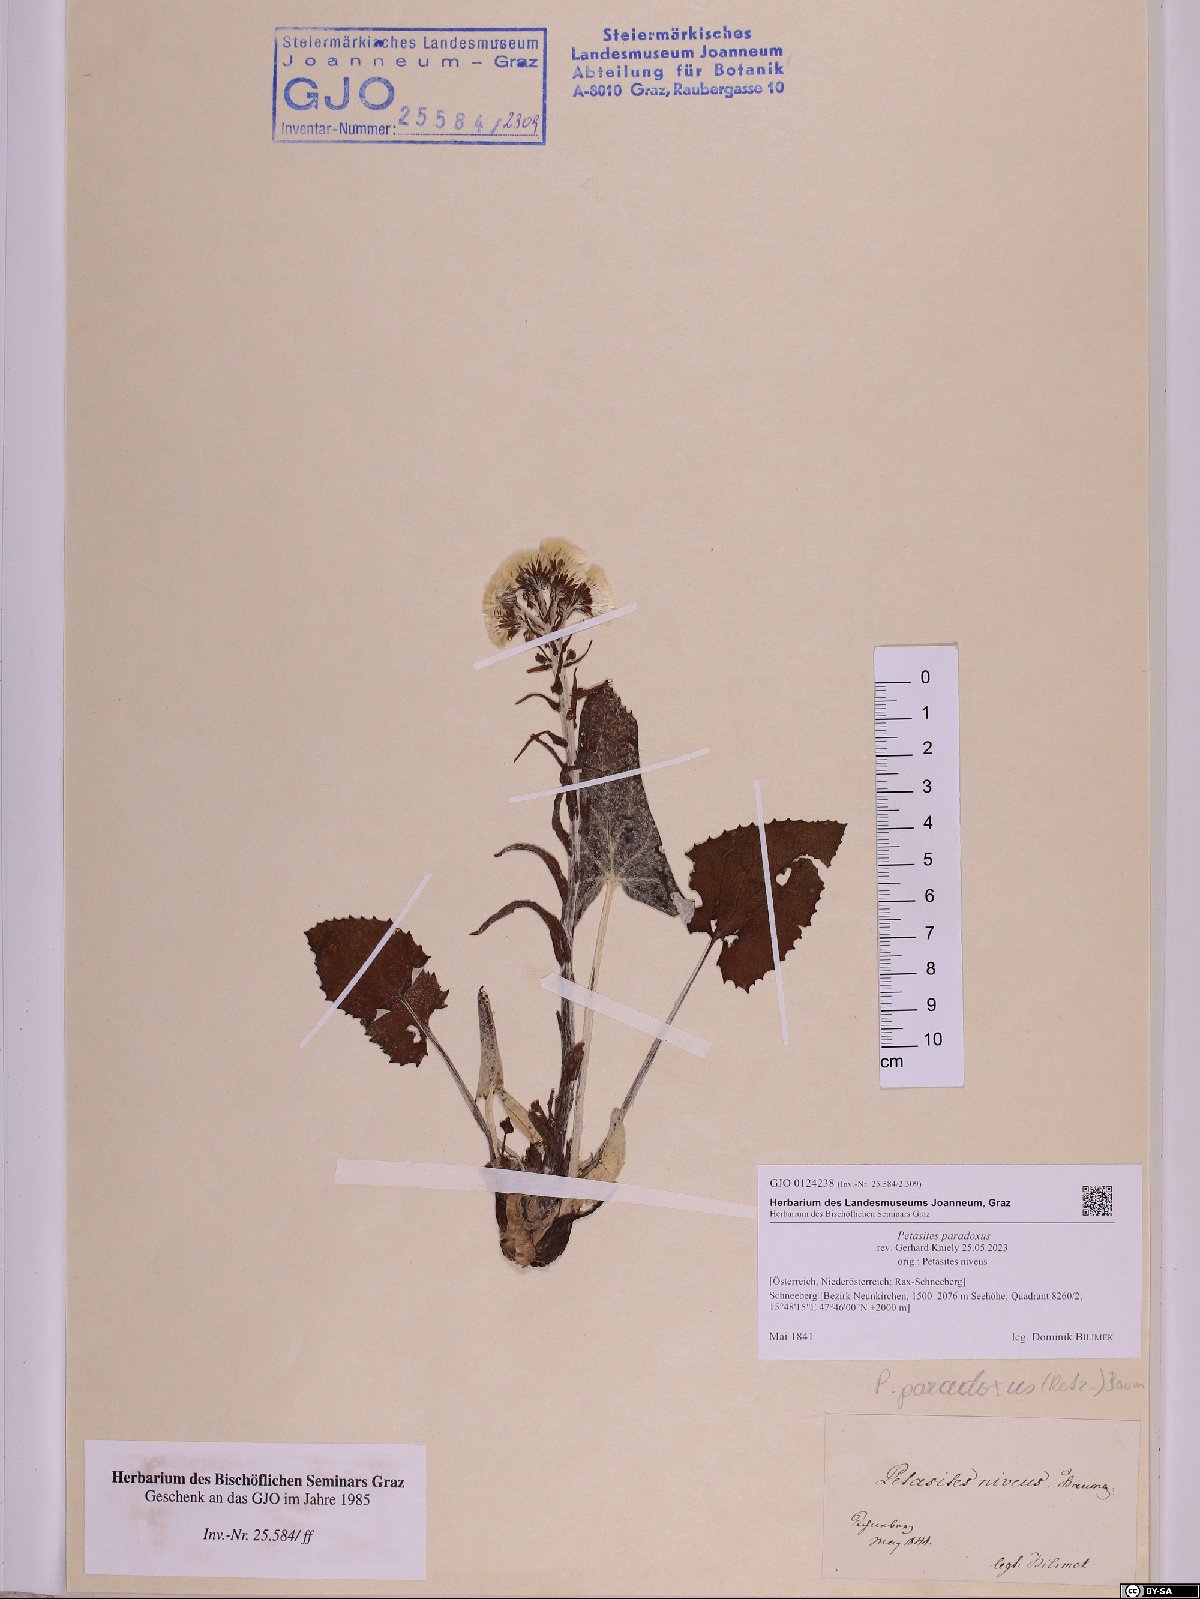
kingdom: Plantae
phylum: Tracheophyta
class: Magnoliopsida
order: Asterales
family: Asteraceae
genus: Petasites
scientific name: Petasites paradoxus
